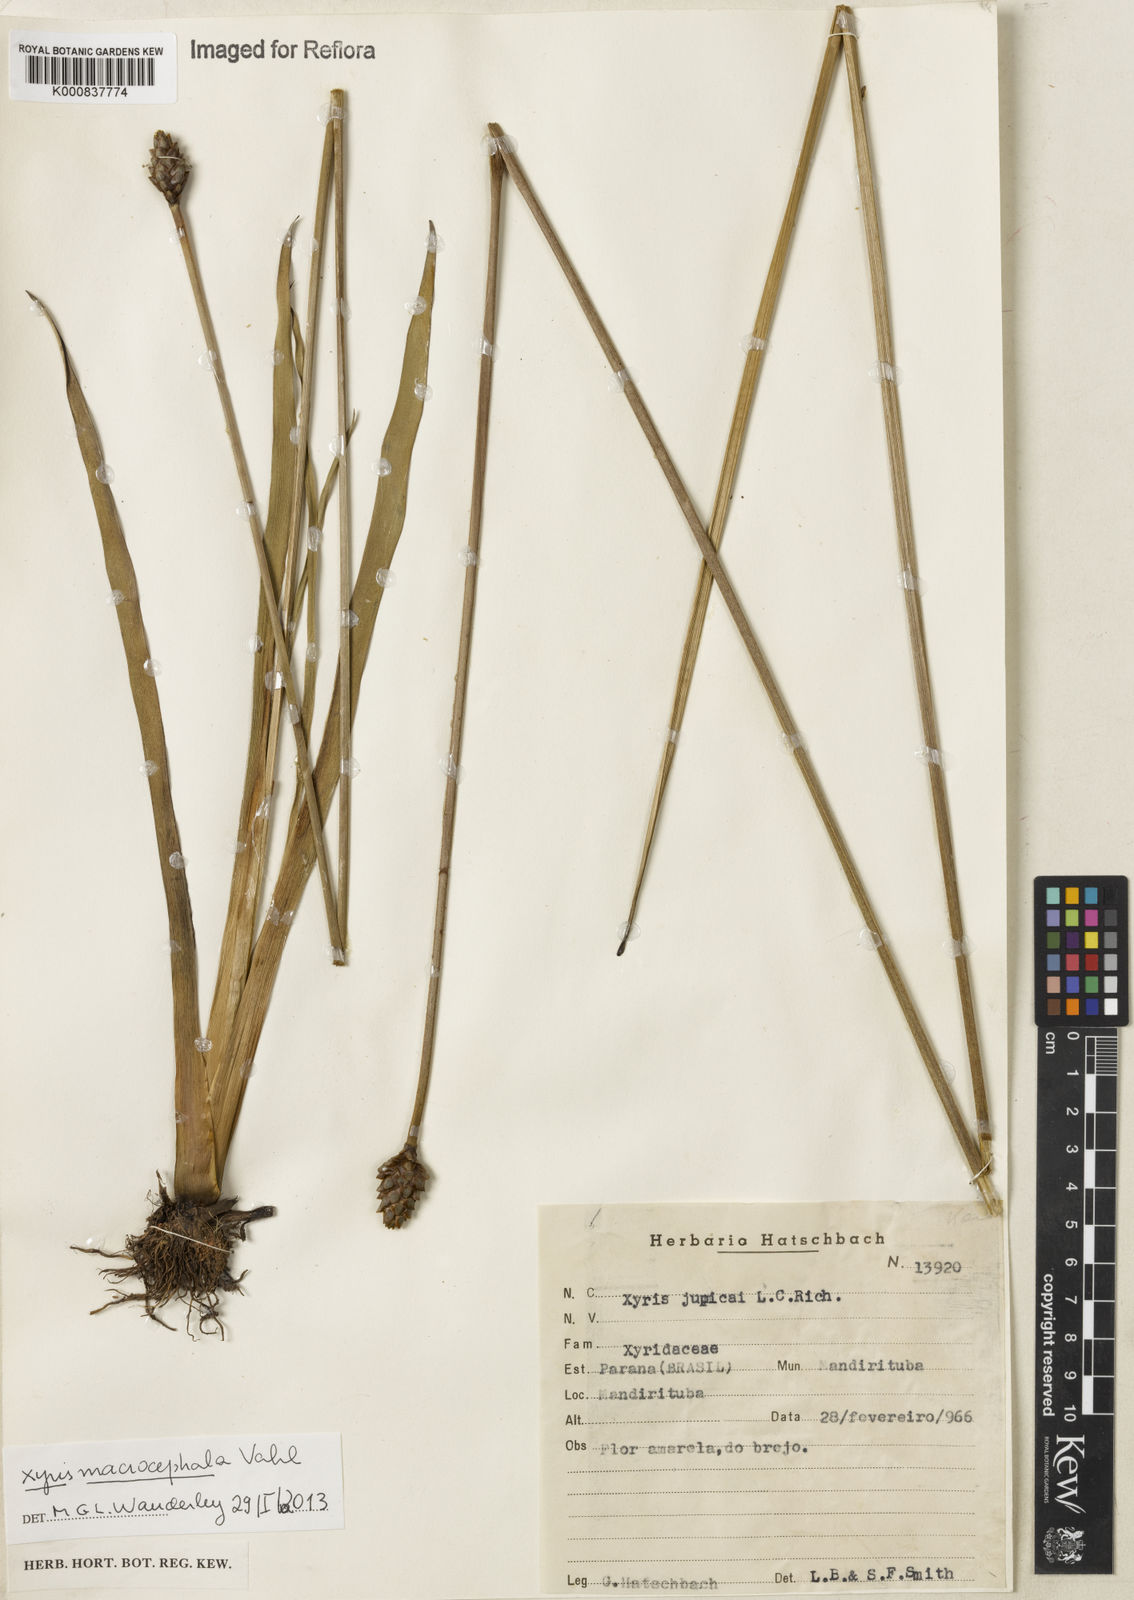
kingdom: Plantae
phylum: Tracheophyta
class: Liliopsida
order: Poales
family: Xyridaceae
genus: Xyris
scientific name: Xyris jupicai
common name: Richard's yelloweyed grass
